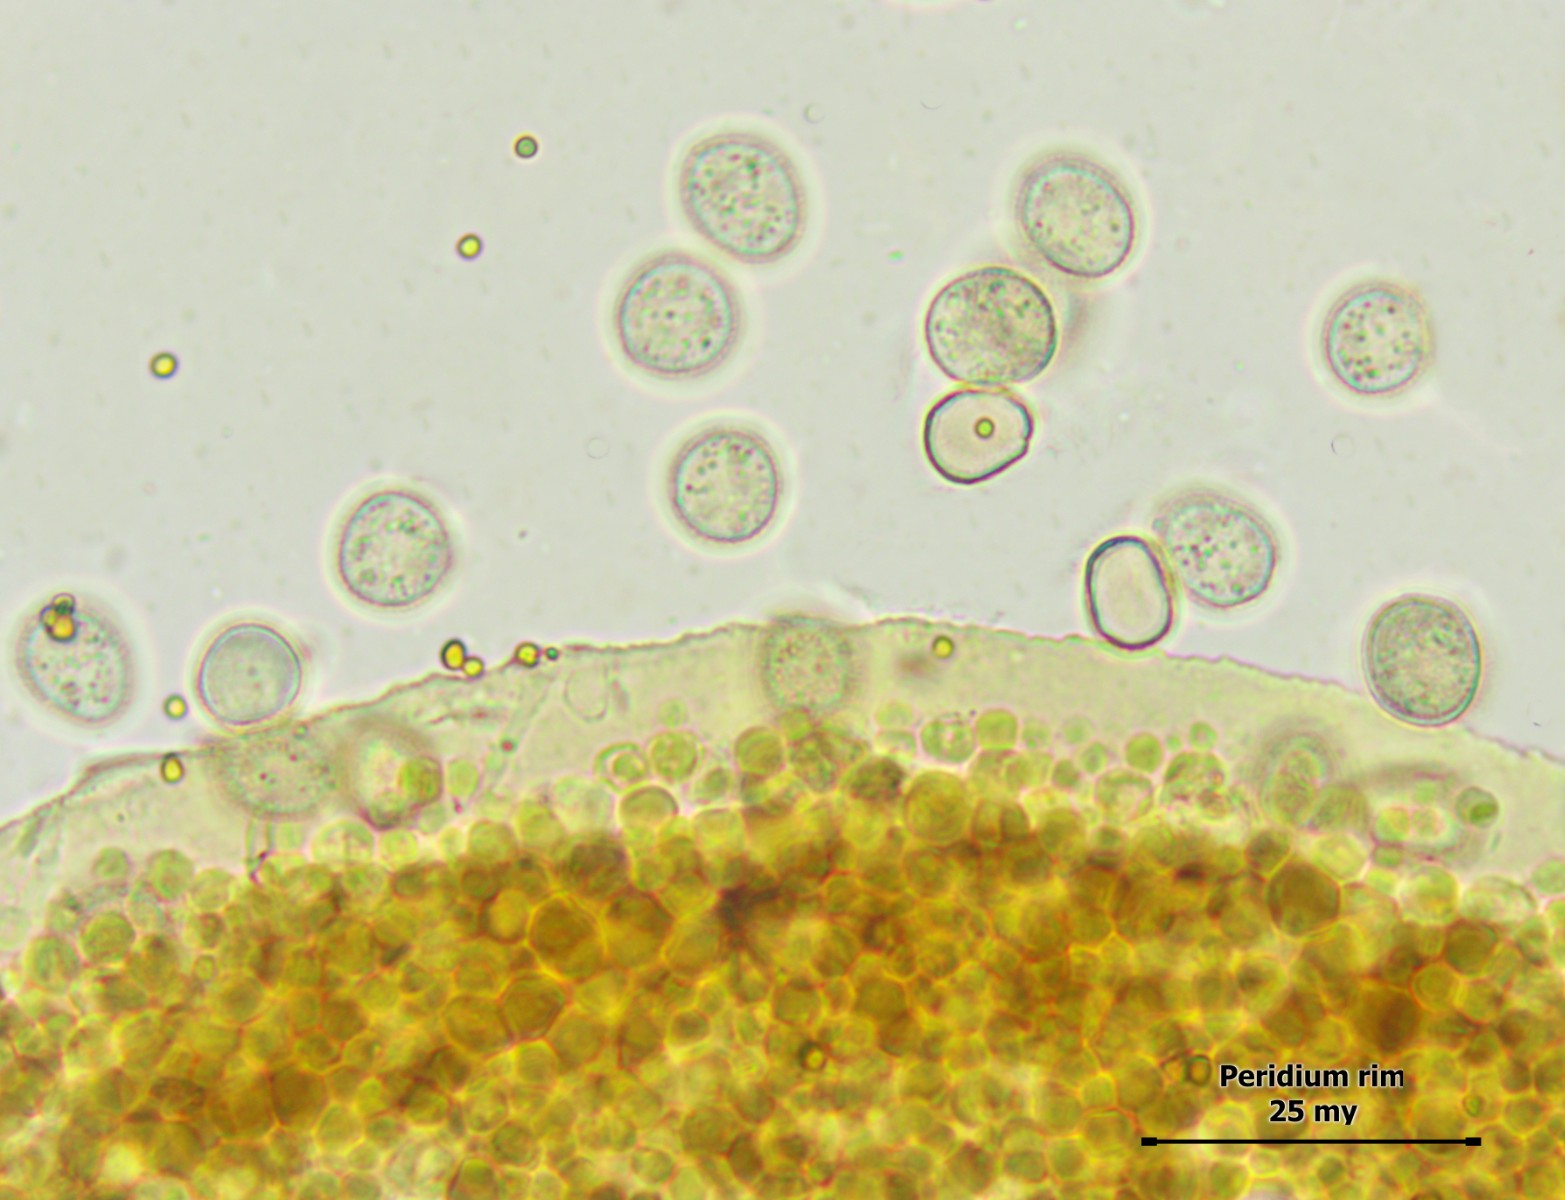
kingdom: Protozoa
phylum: Mycetozoa
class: Myxomycetes
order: Cribrariales
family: Liceaceae
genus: Licea
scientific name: Licea biforis
